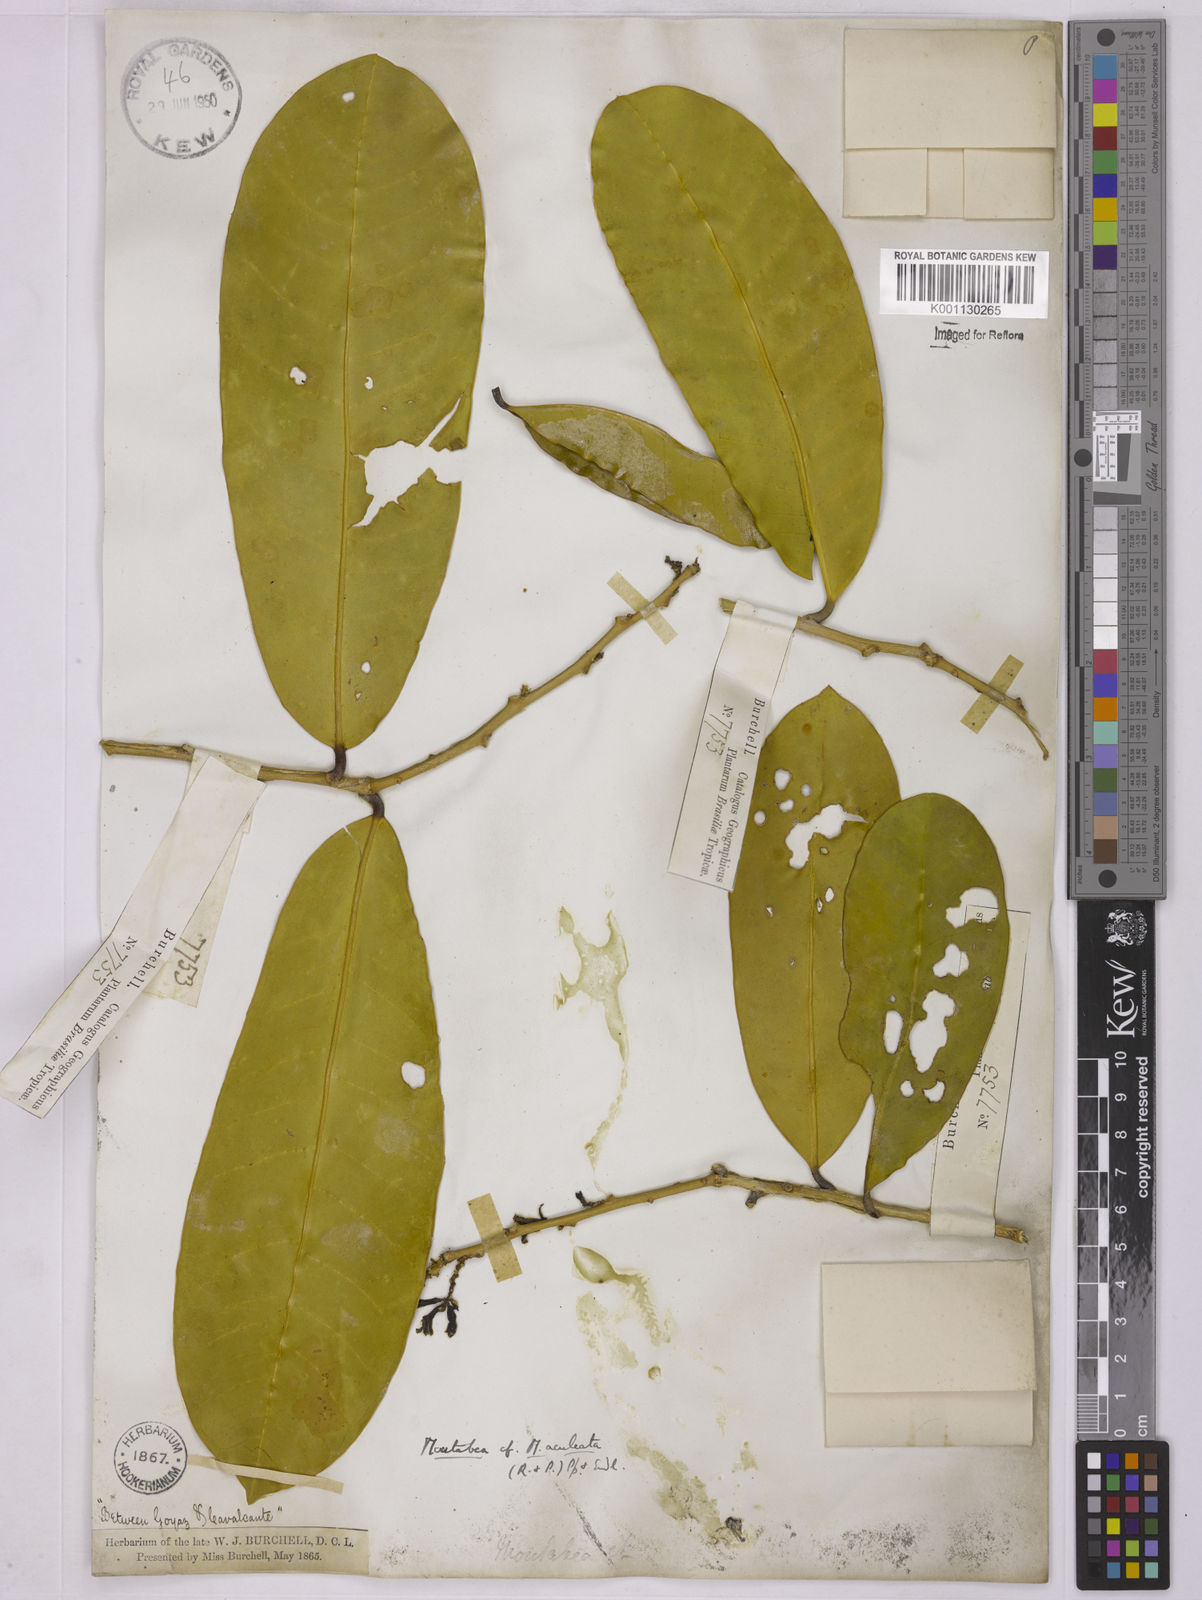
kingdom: Plantae
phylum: Tracheophyta
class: Magnoliopsida
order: Fabales
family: Polygalaceae
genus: Moutabea
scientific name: Moutabea aculeata
